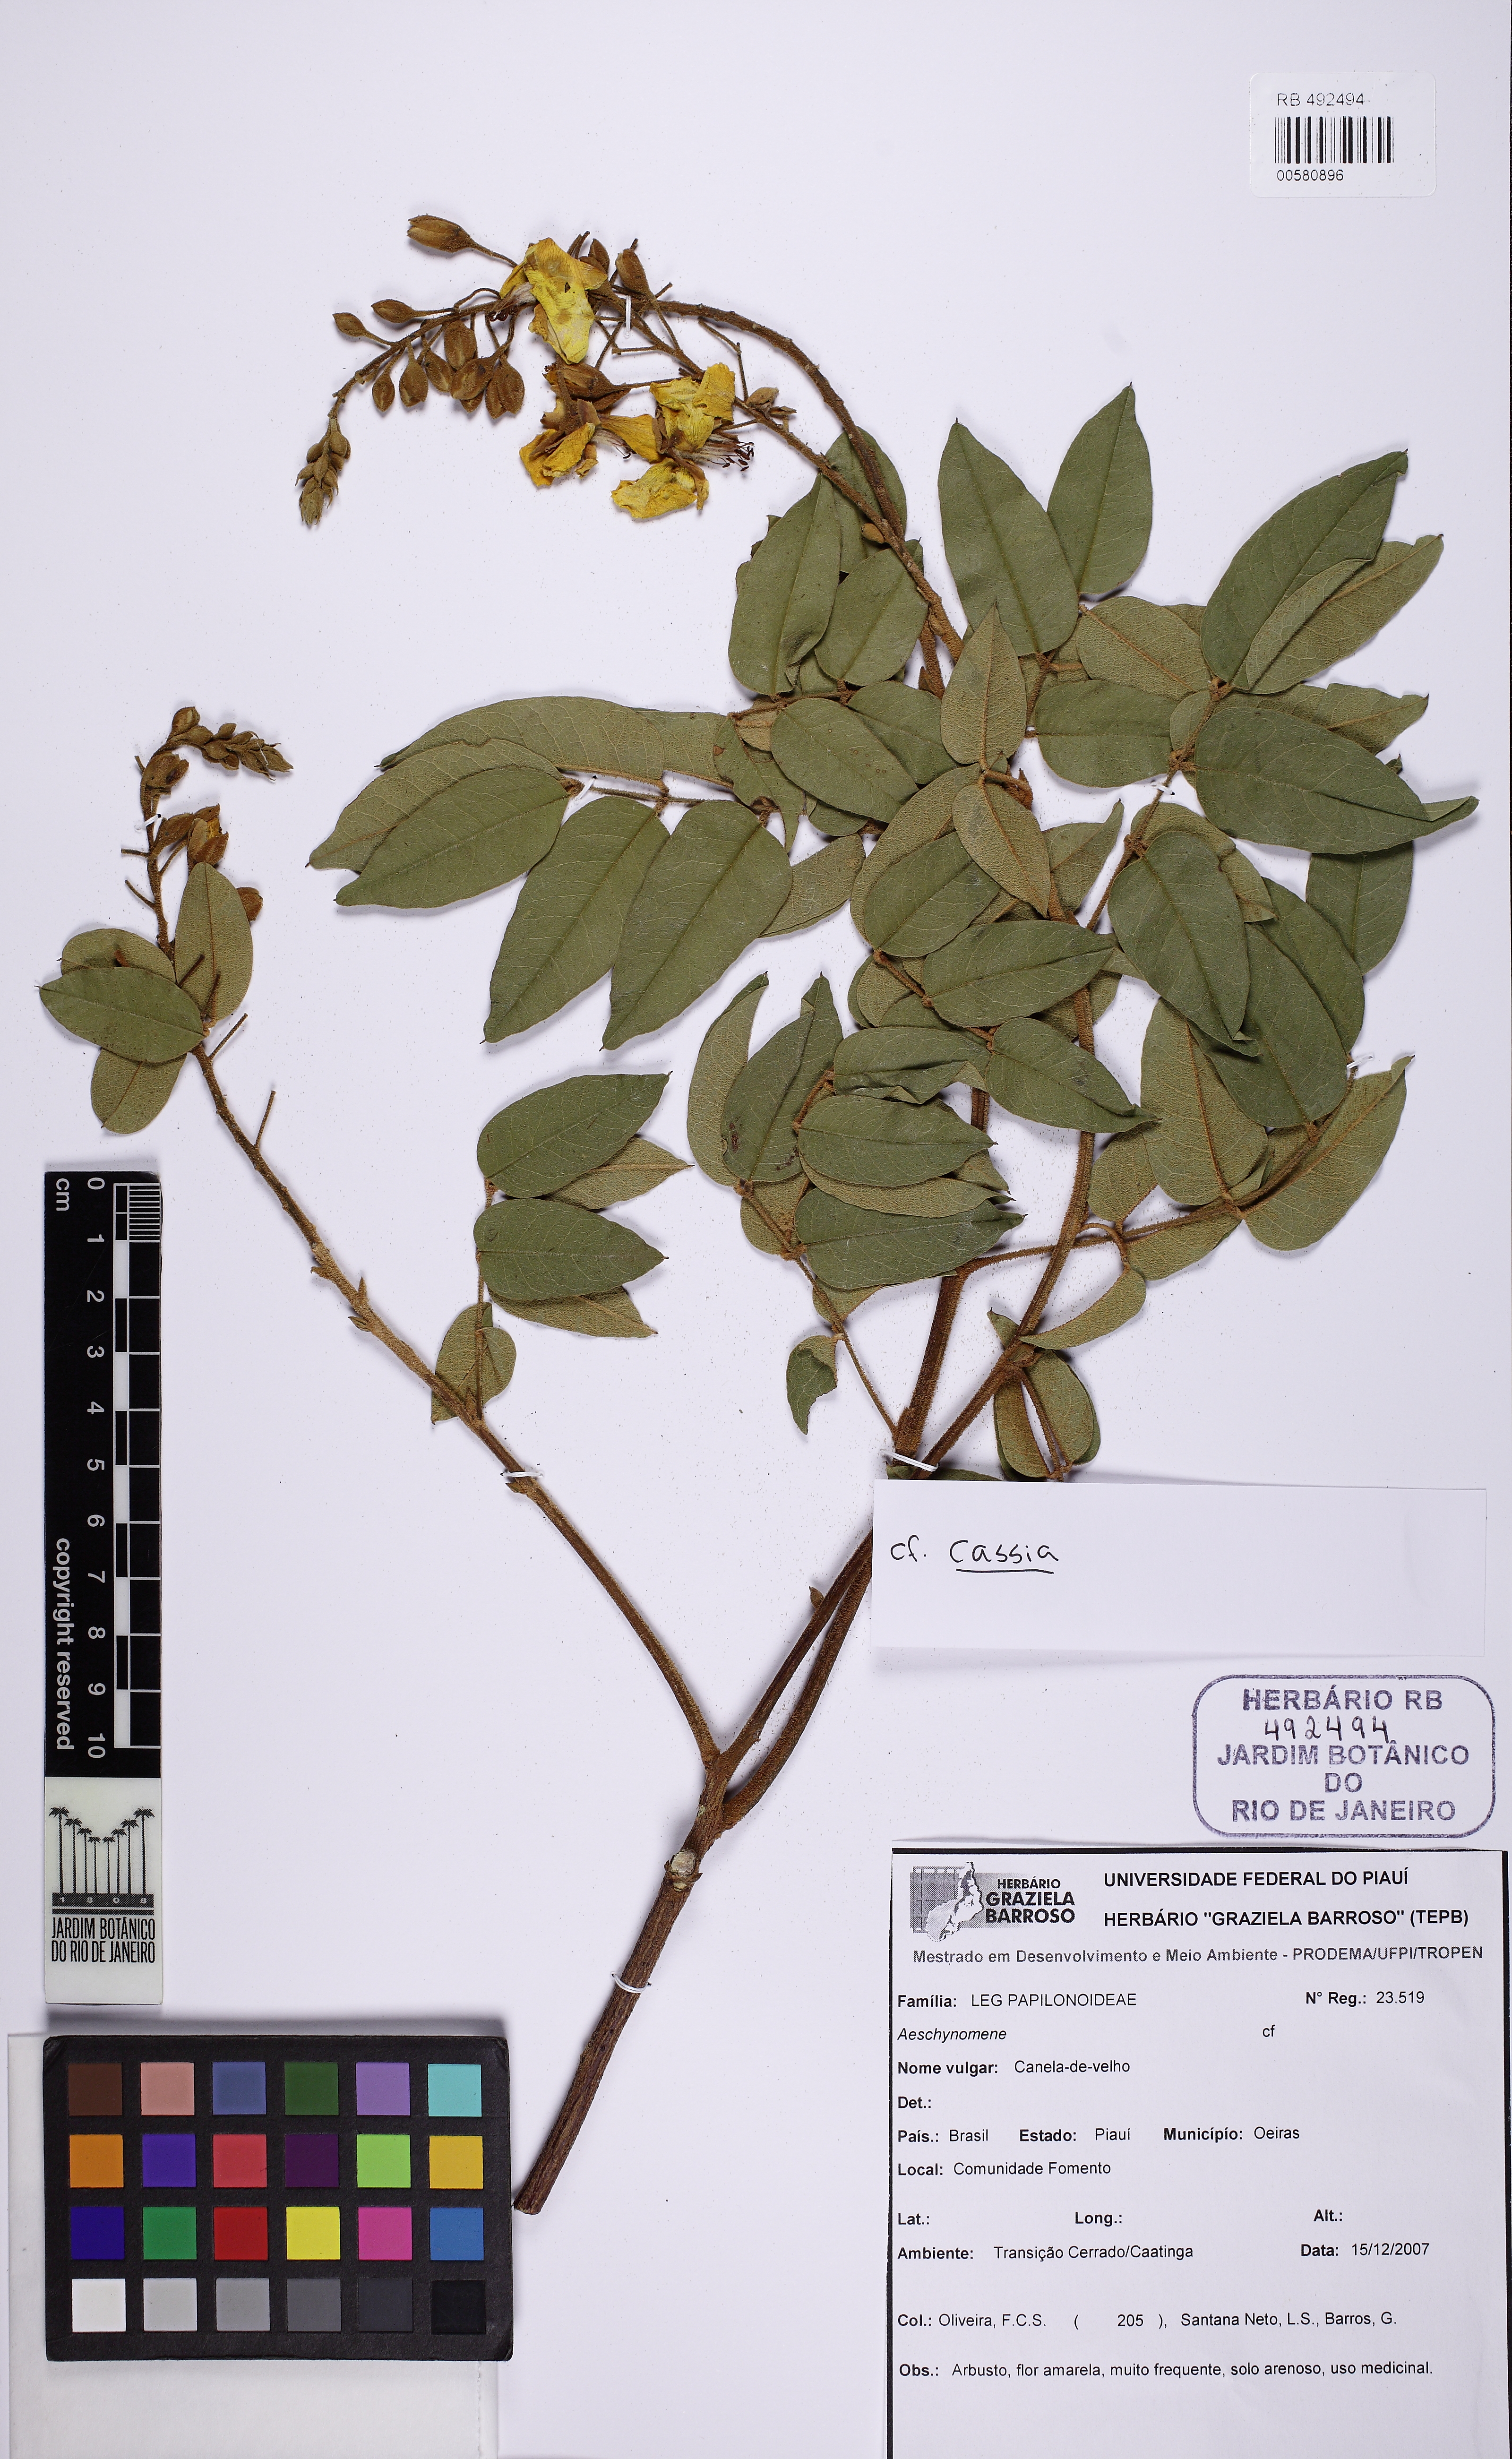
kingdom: Plantae
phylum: Tracheophyta
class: Magnoliopsida
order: Fabales
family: Fabaceae
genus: Cenostigma
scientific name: Cenostigma macrophyllum
